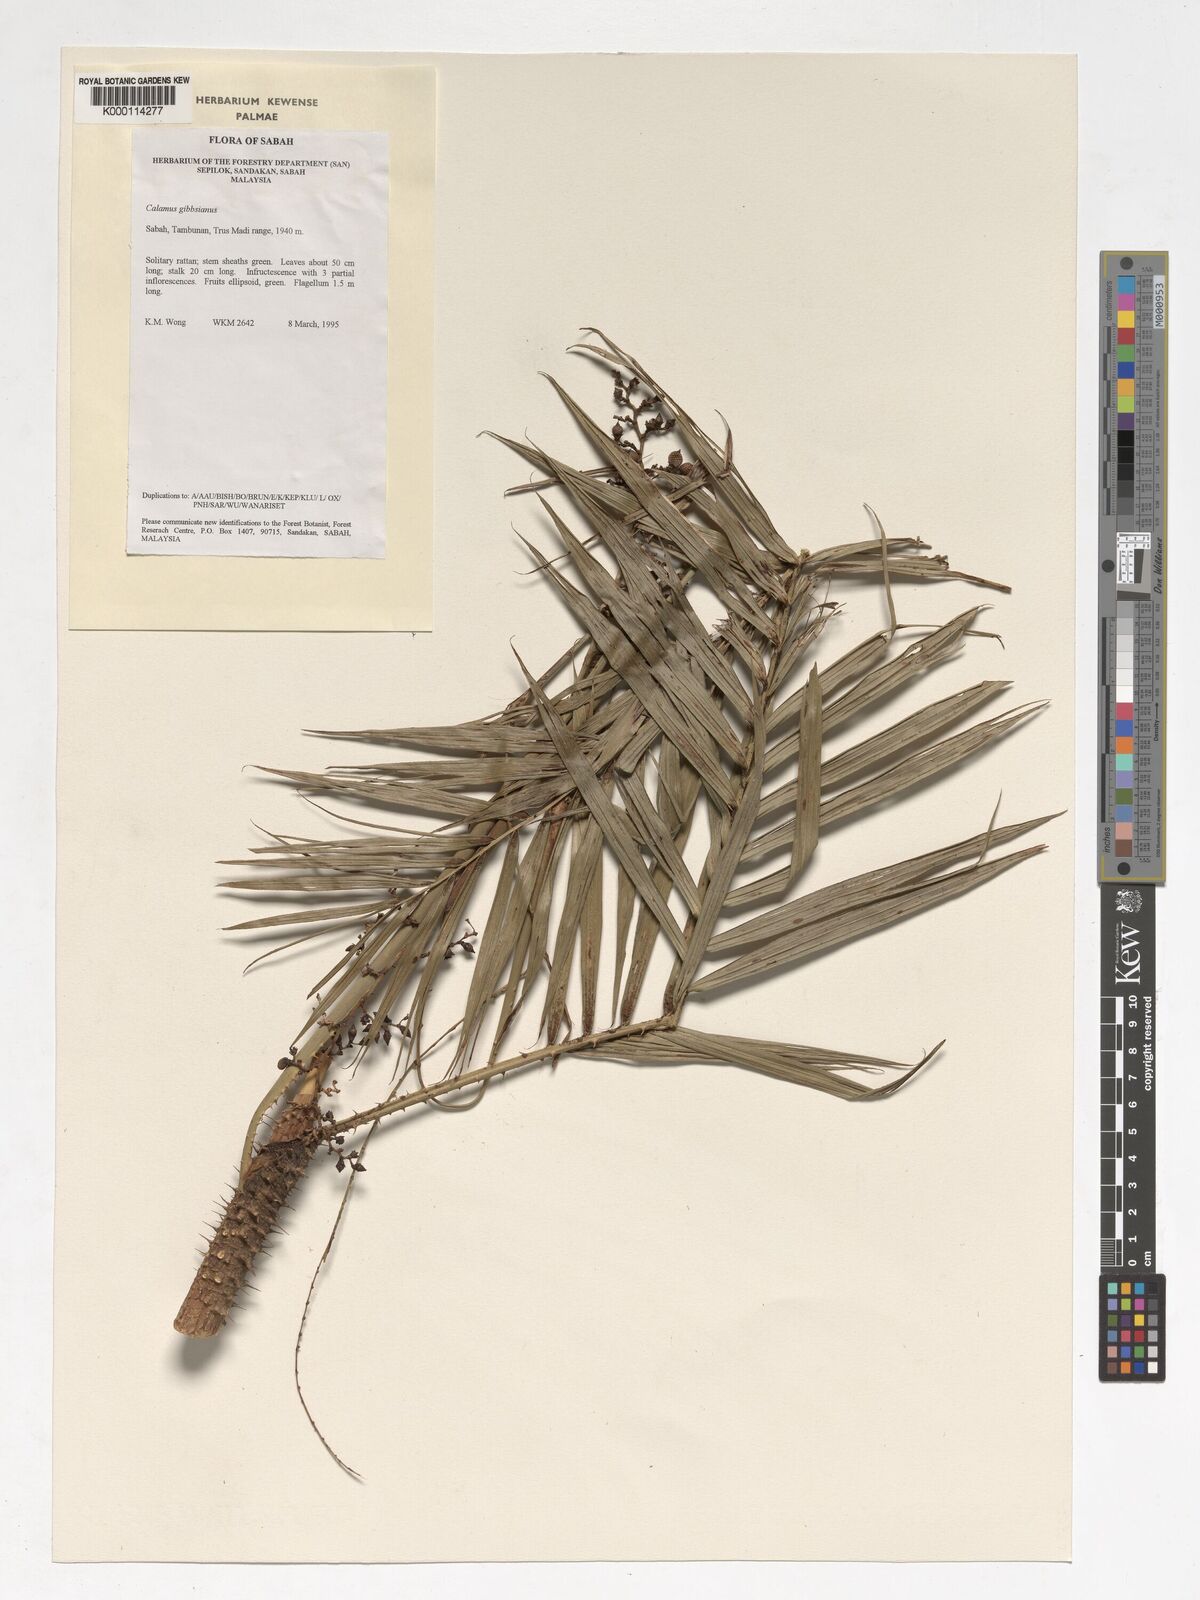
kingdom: Plantae
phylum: Tracheophyta
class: Liliopsida
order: Arecales
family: Arecaceae
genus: Calamus
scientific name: Calamus gibbsianus
